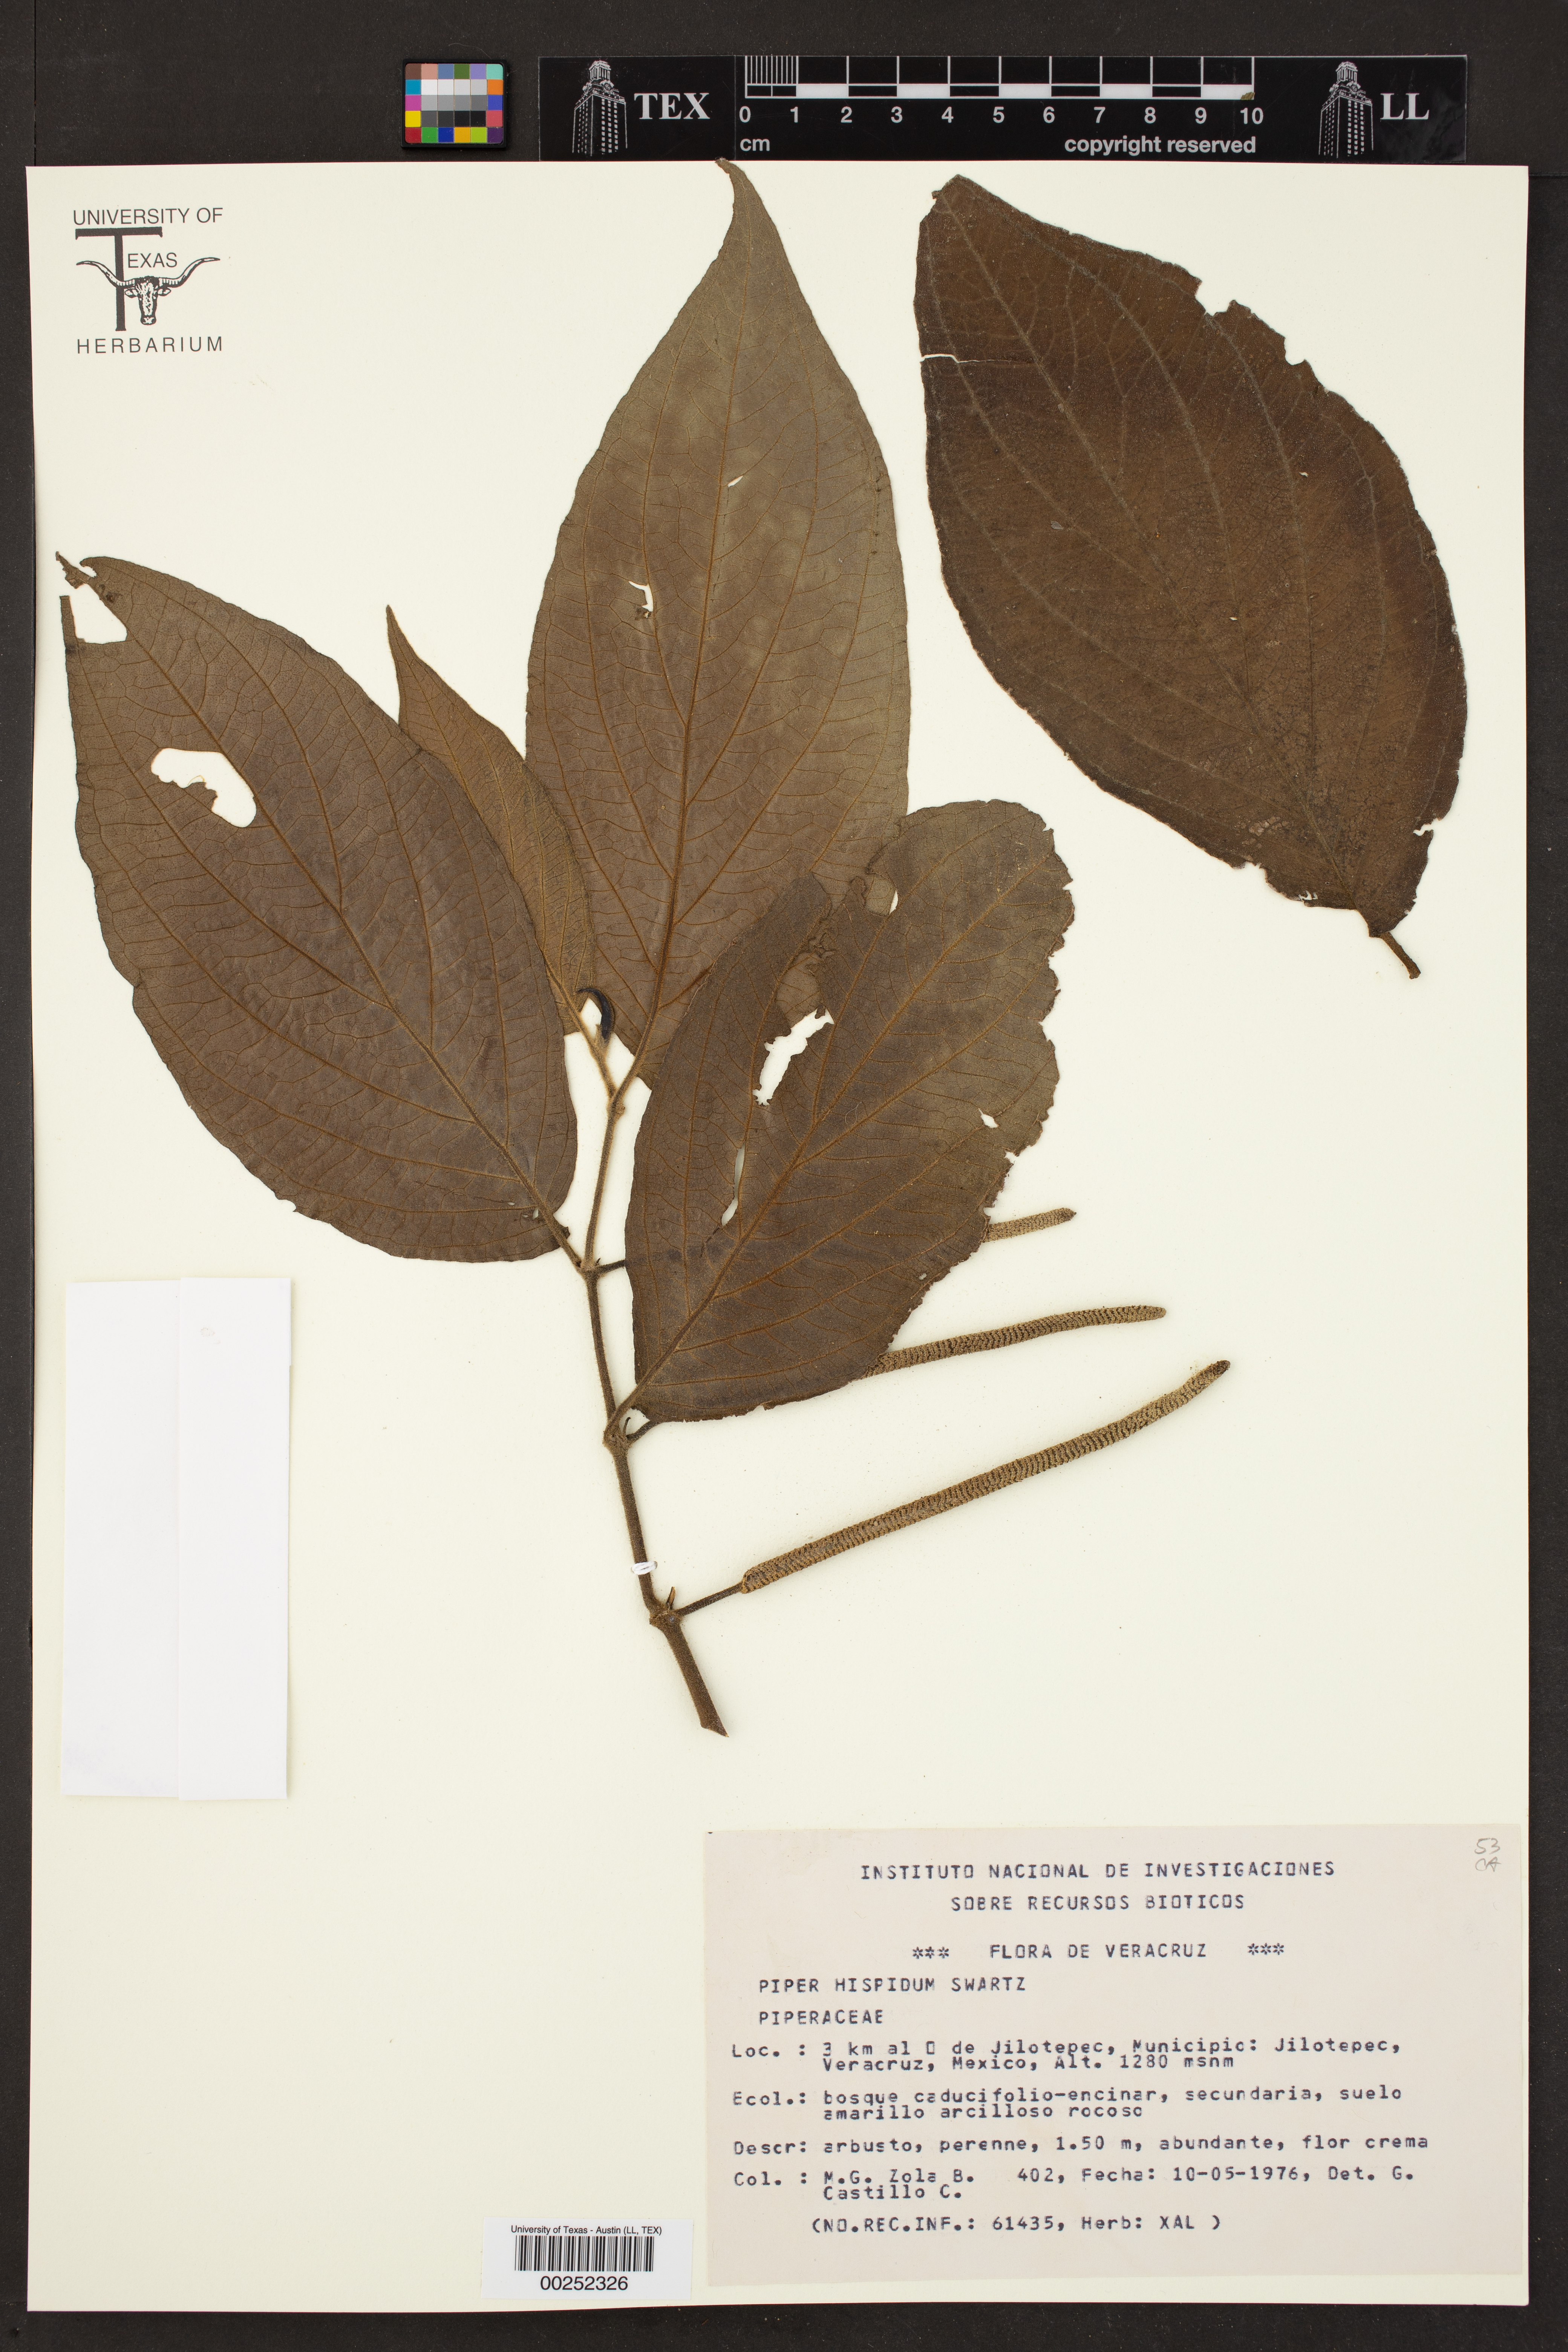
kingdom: Plantae
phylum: Tracheophyta
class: Magnoliopsida
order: Piperales
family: Piperaceae
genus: Piper
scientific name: Piper hispidum
